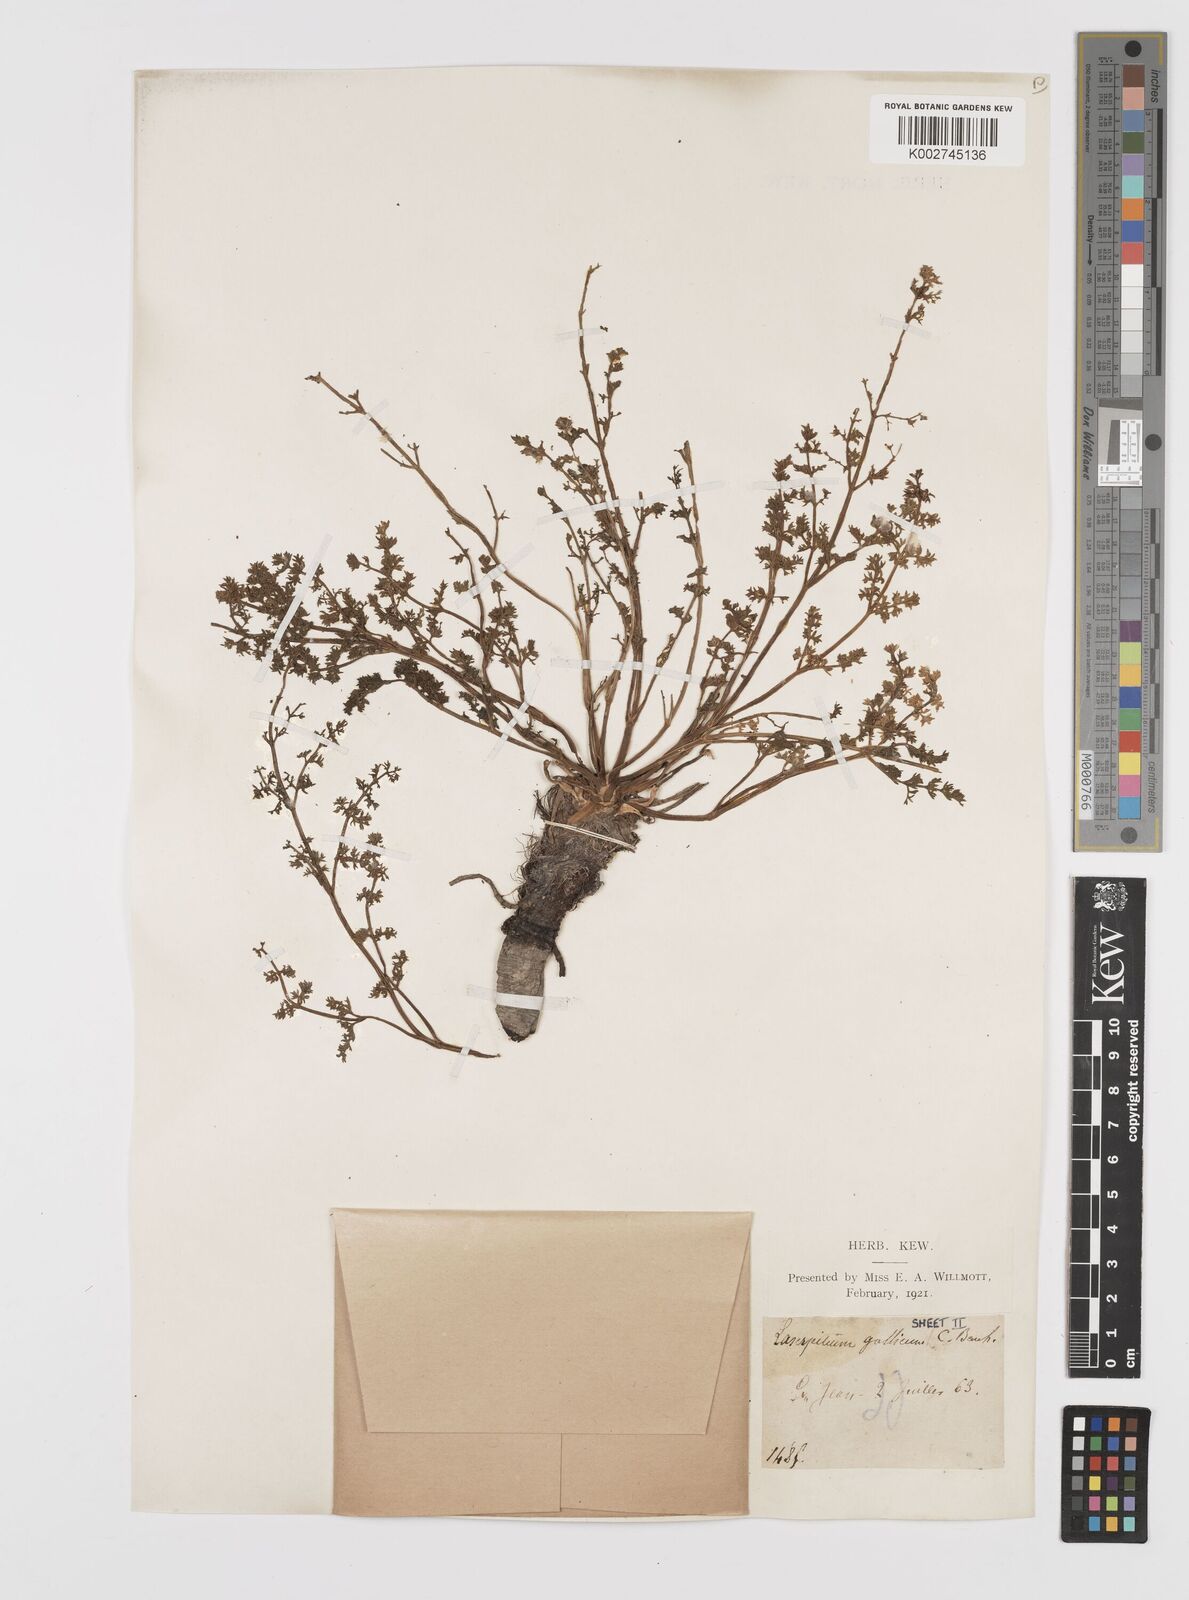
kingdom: Plantae
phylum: Tracheophyta
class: Magnoliopsida
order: Apiales
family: Apiaceae
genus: Laserpitium
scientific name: Laserpitium gallicum
